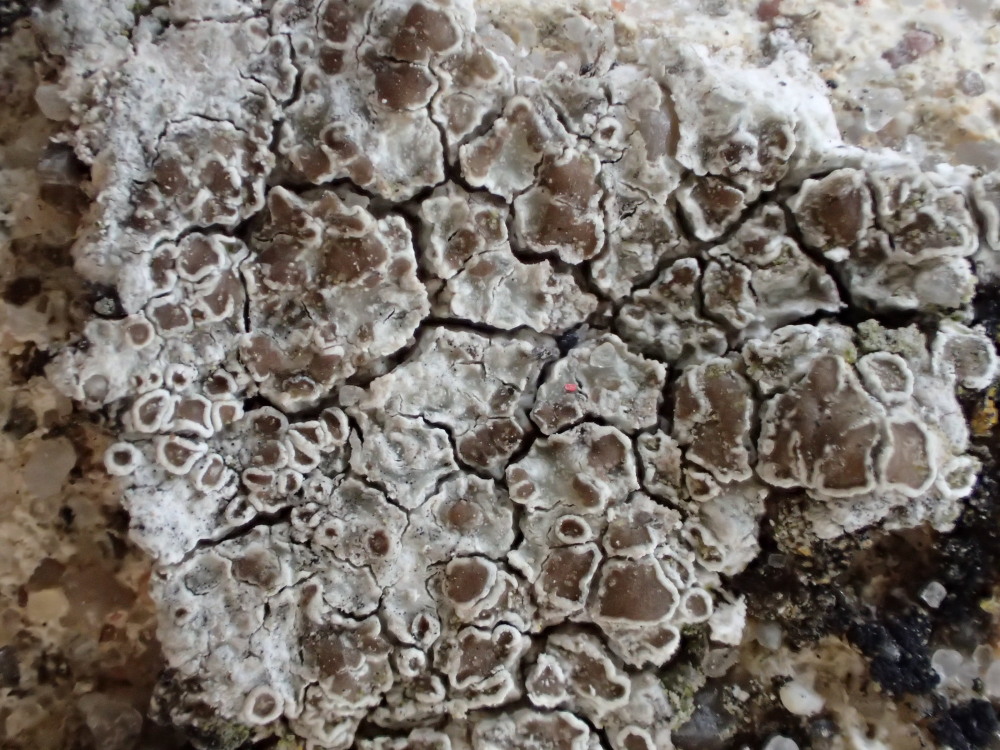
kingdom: Fungi
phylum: Ascomycota
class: Lecanoromycetes
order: Lecanorales
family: Lecanoraceae
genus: Polyozosia
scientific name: Polyozosia albescens
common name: cement-kantskivelav
